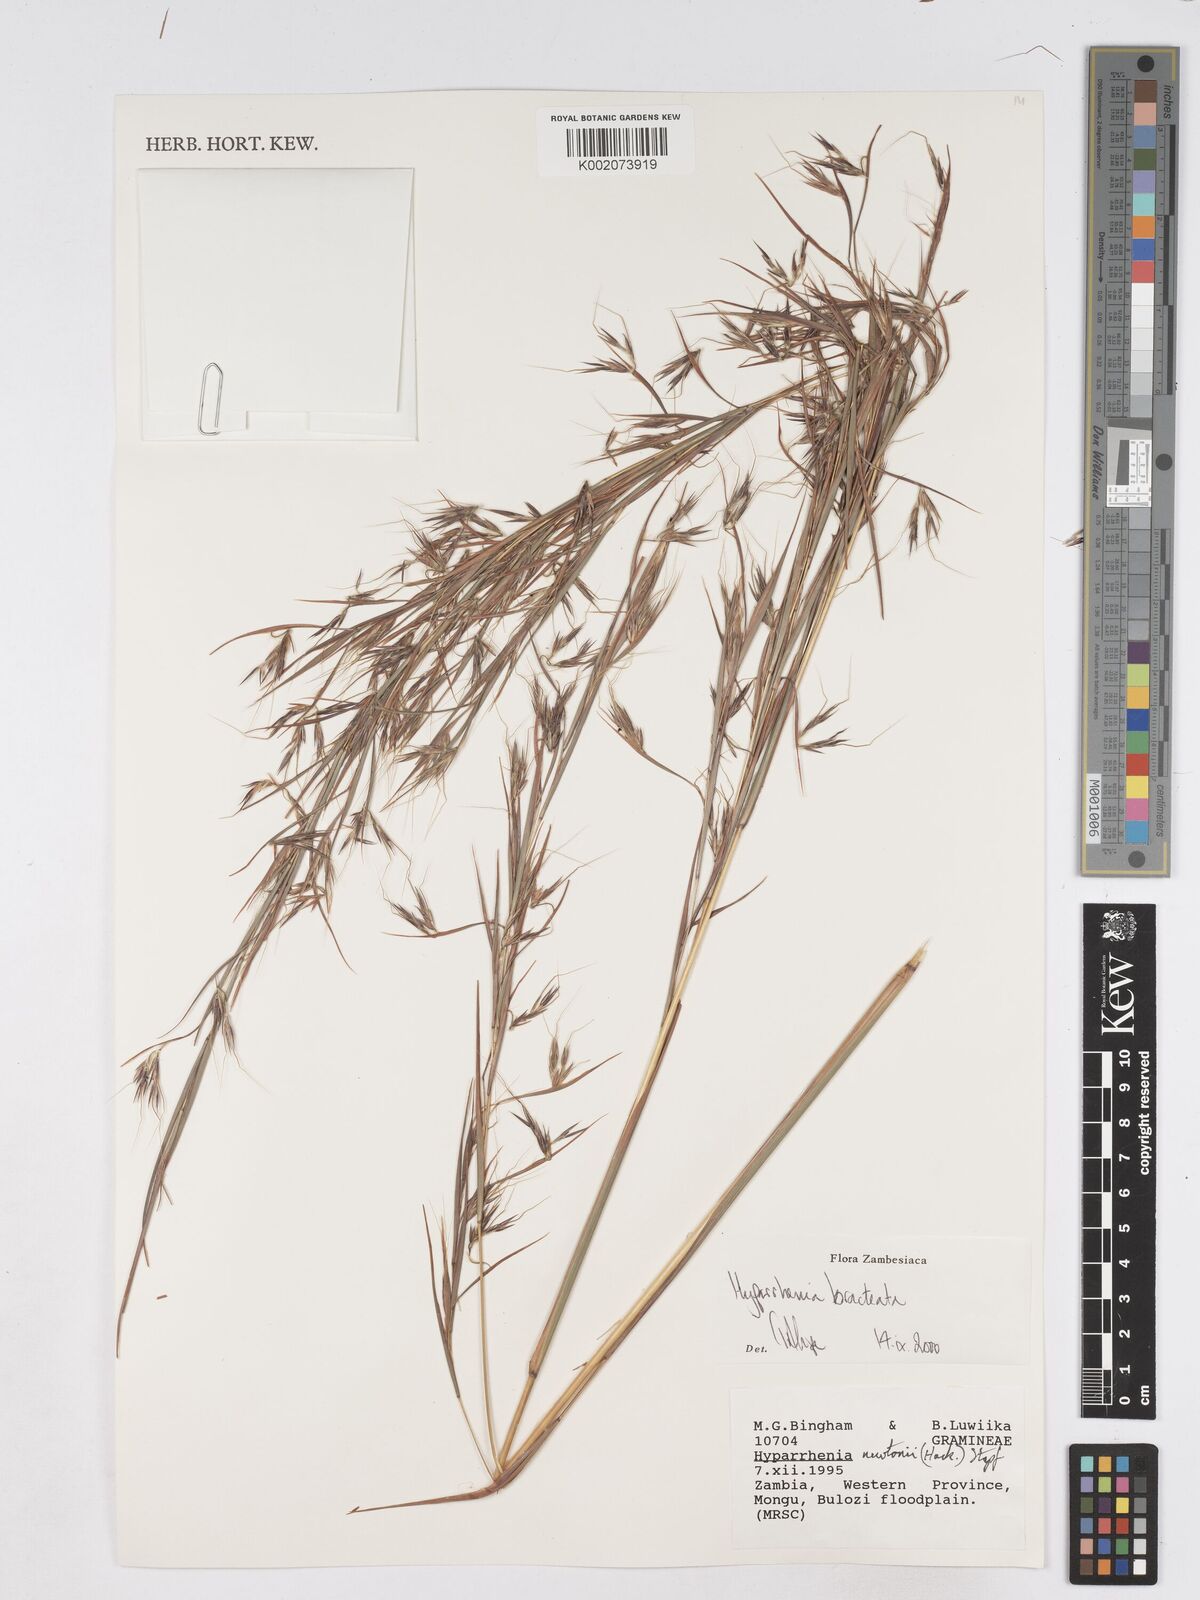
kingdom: Plantae
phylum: Tracheophyta
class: Liliopsida
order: Poales
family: Poaceae
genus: Hyparrhenia
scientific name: Hyparrhenia bracteata
